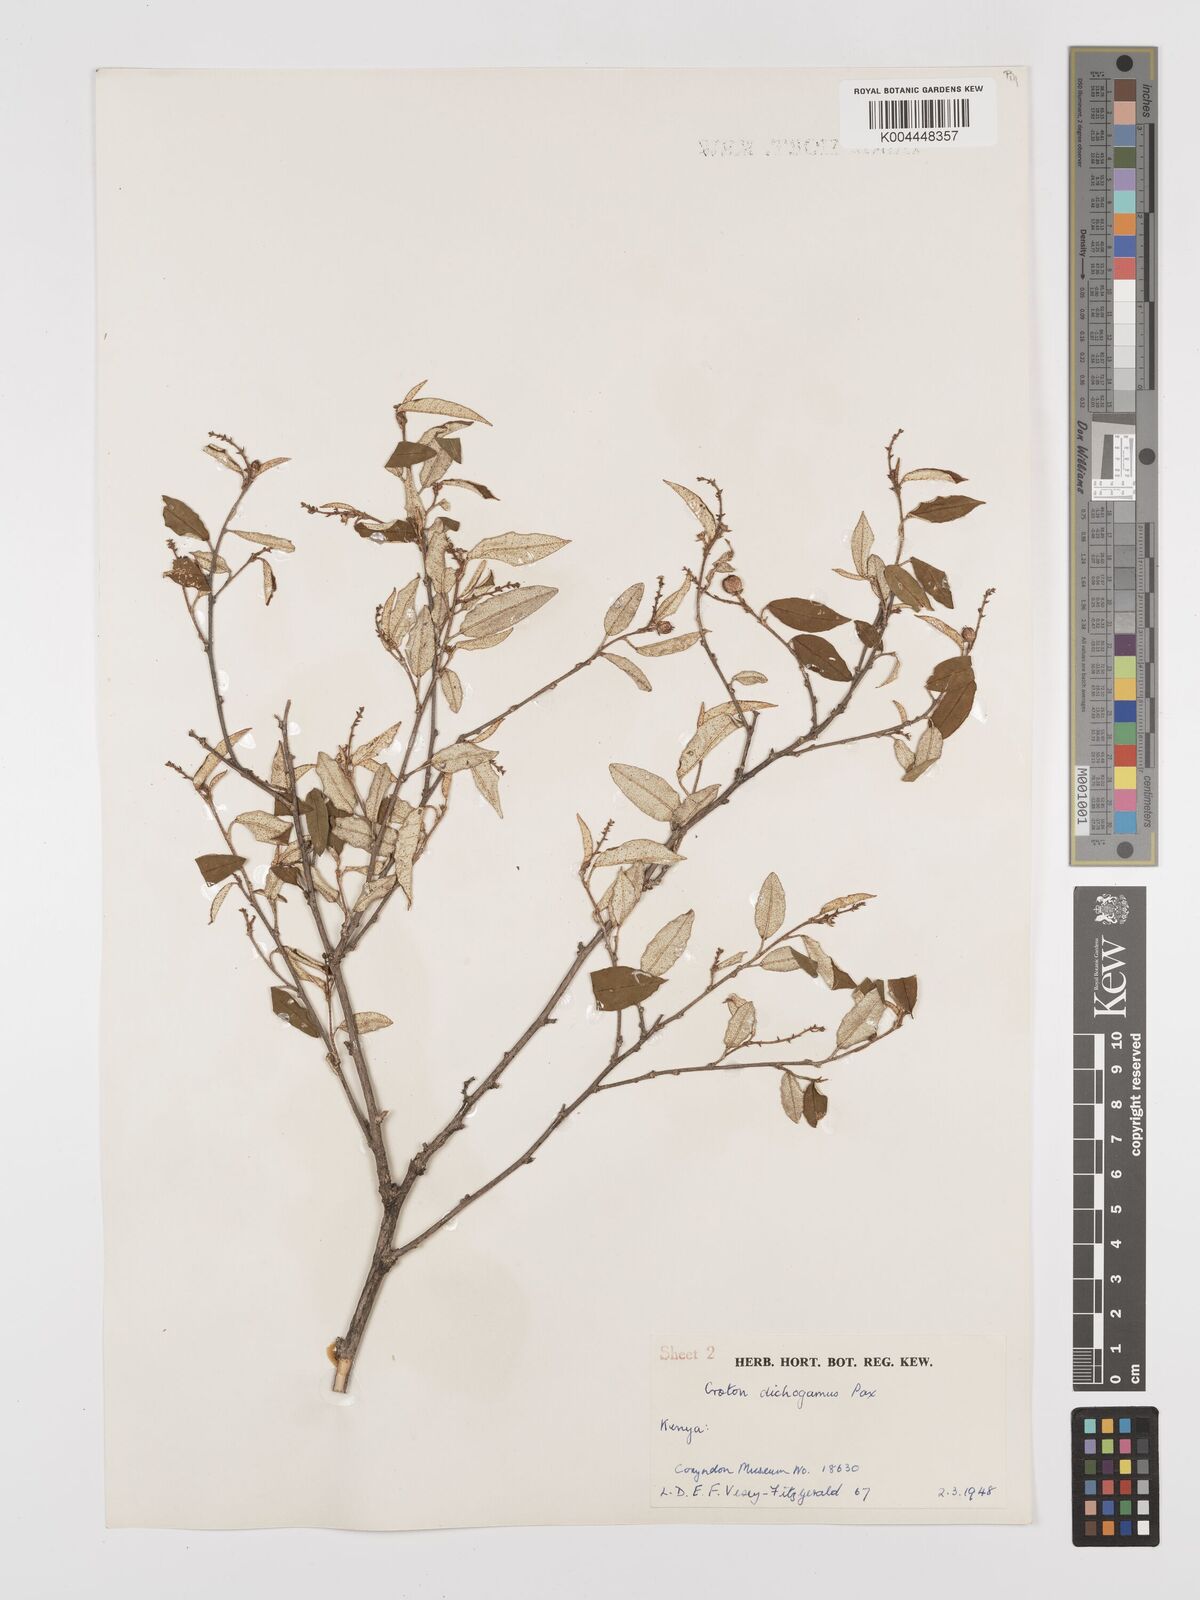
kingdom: Plantae
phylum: Tracheophyta
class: Magnoliopsida
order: Malpighiales
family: Euphorbiaceae
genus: Croton
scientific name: Croton dichogamus
